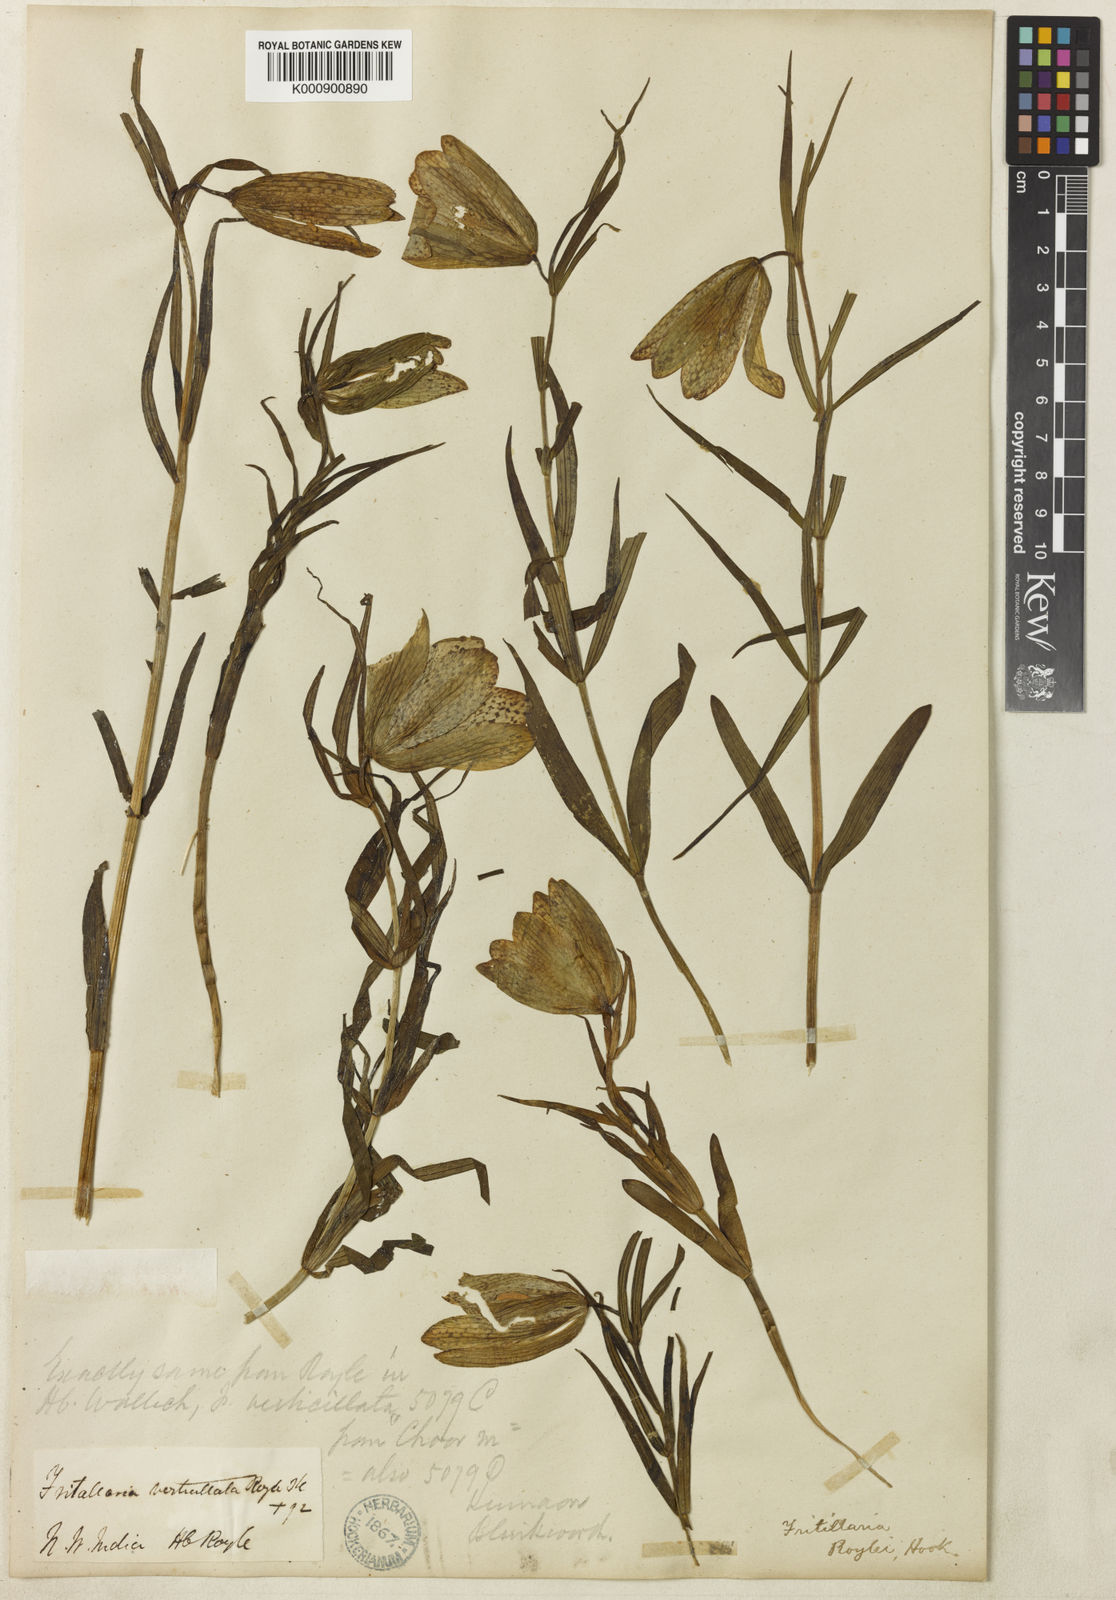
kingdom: Plantae
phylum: Tracheophyta
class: Liliopsida
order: Liliales
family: Liliaceae
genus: Fritillaria
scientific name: Fritillaria cirrhosa
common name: Sichuan fritillary
